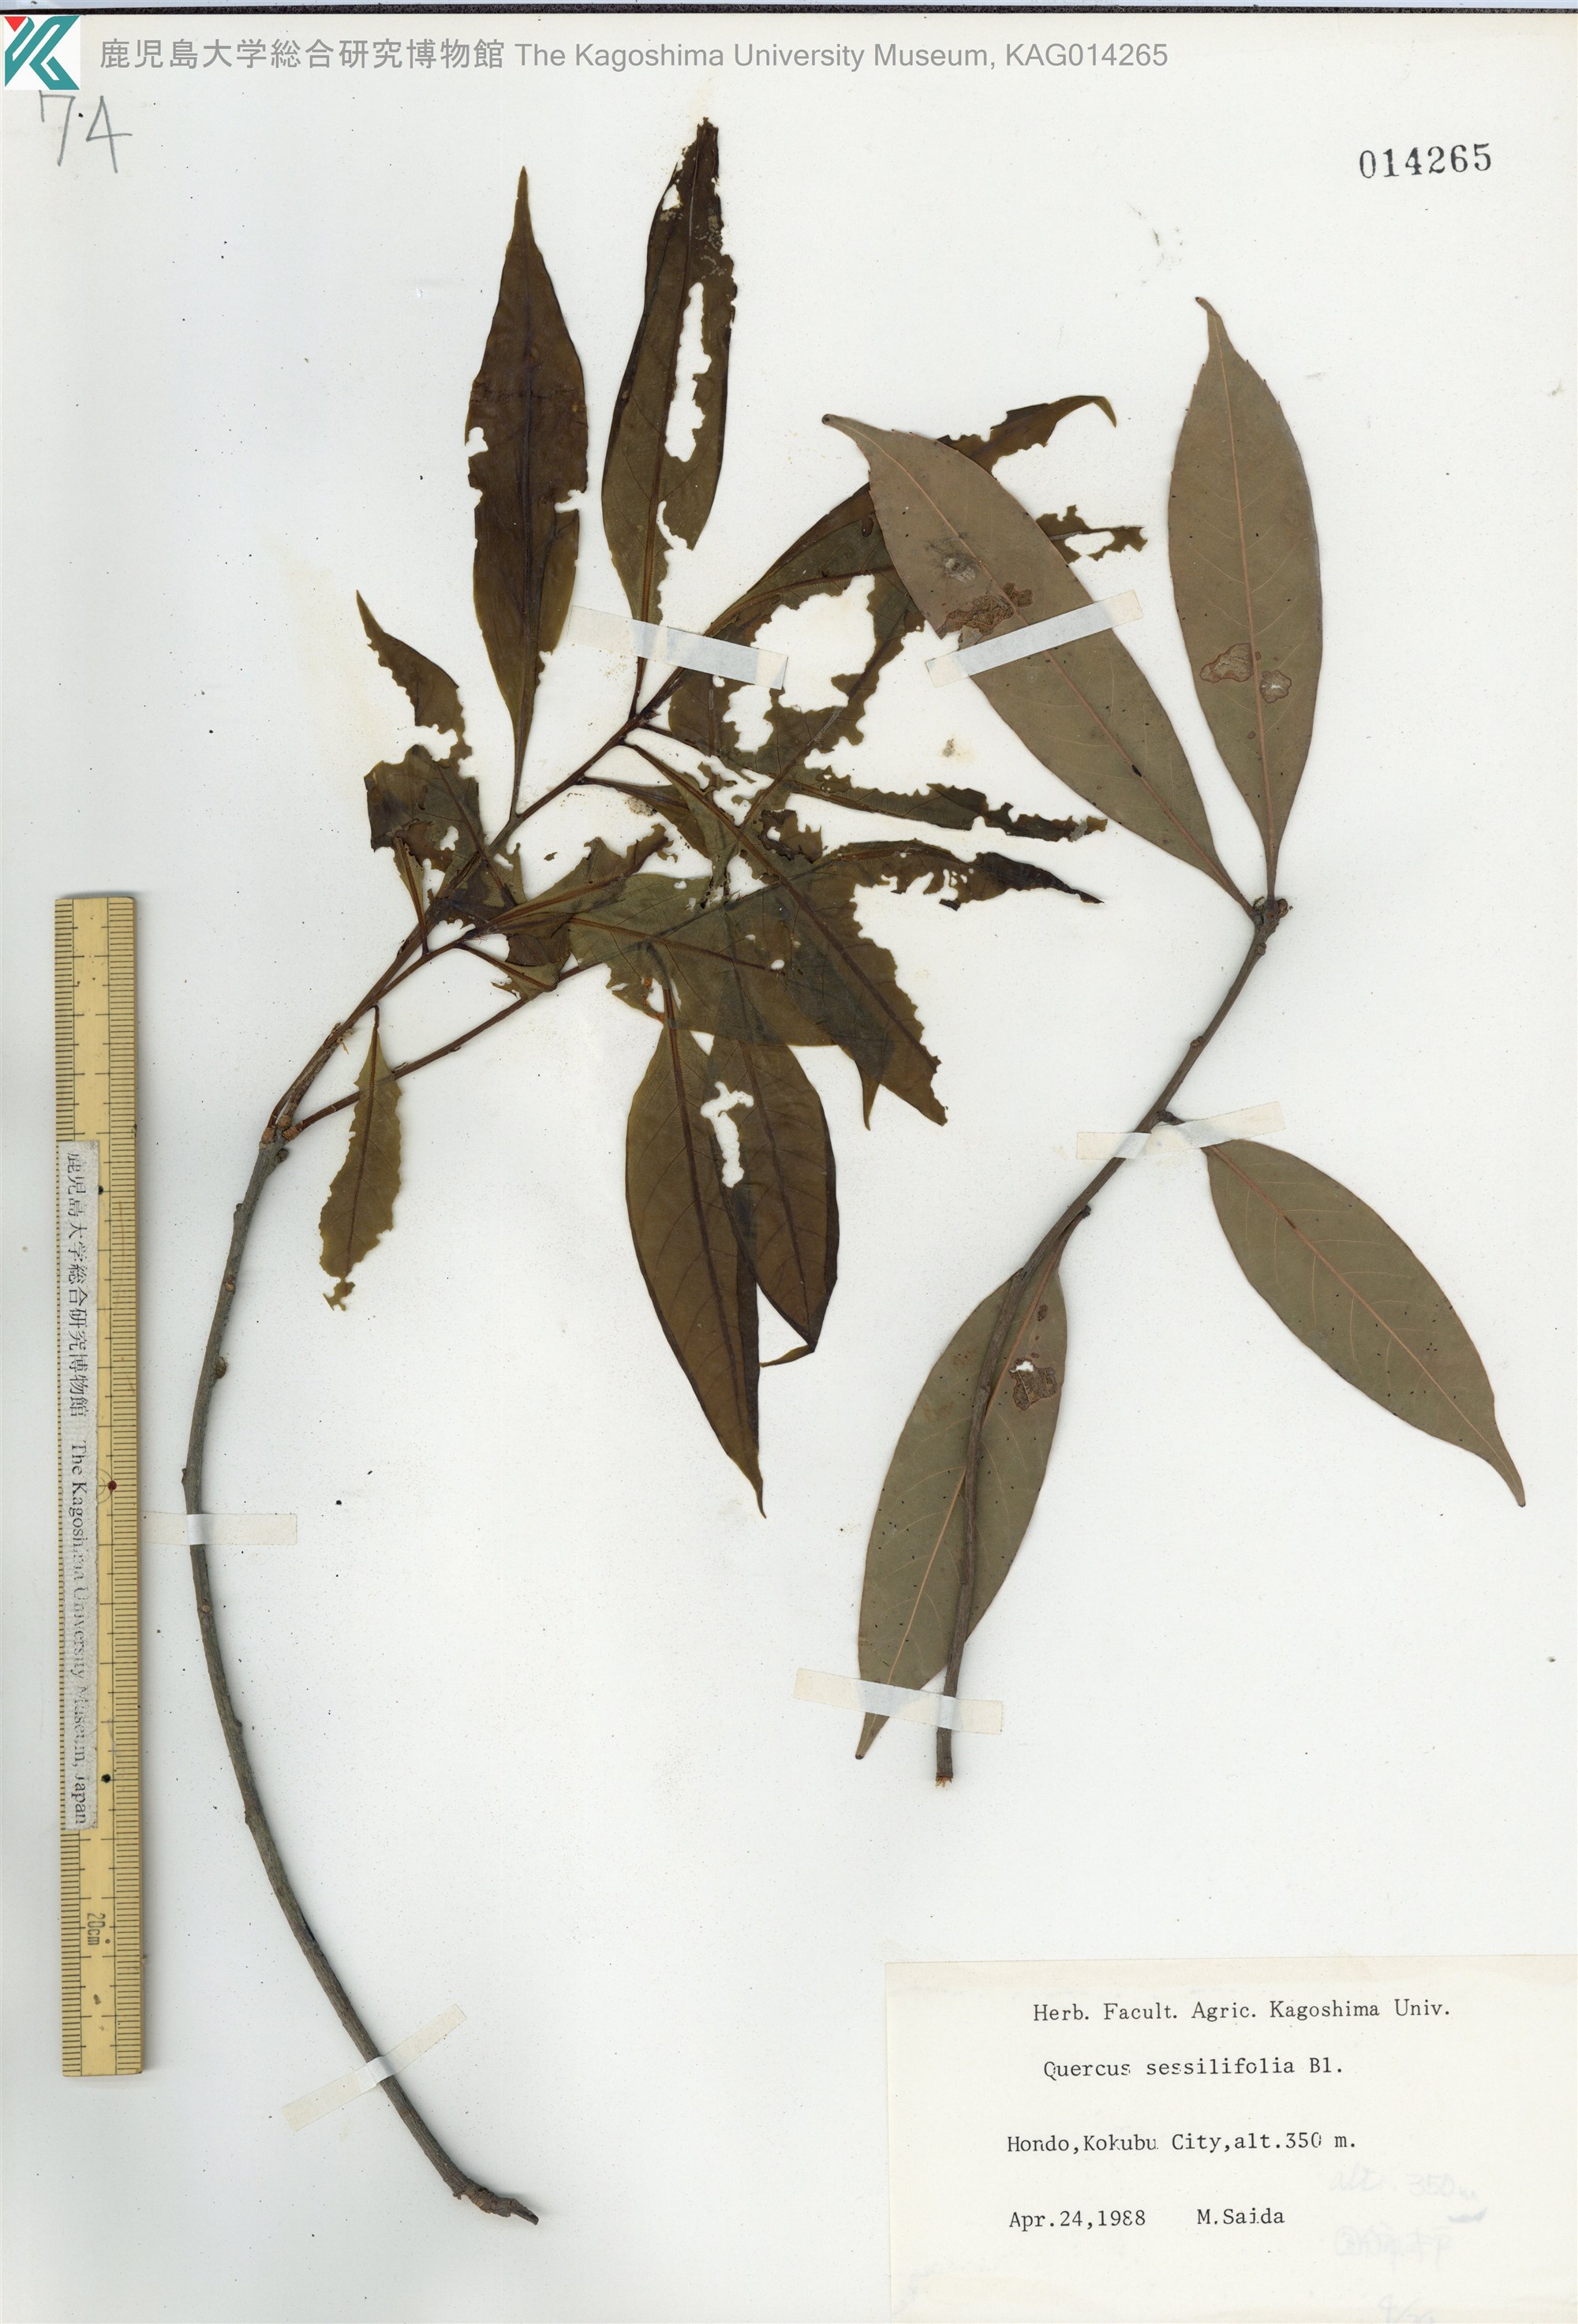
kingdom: Plantae
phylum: Tracheophyta
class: Magnoliopsida
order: Fagales
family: Fagaceae
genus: Quercus
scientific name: Quercus sessilifolia
